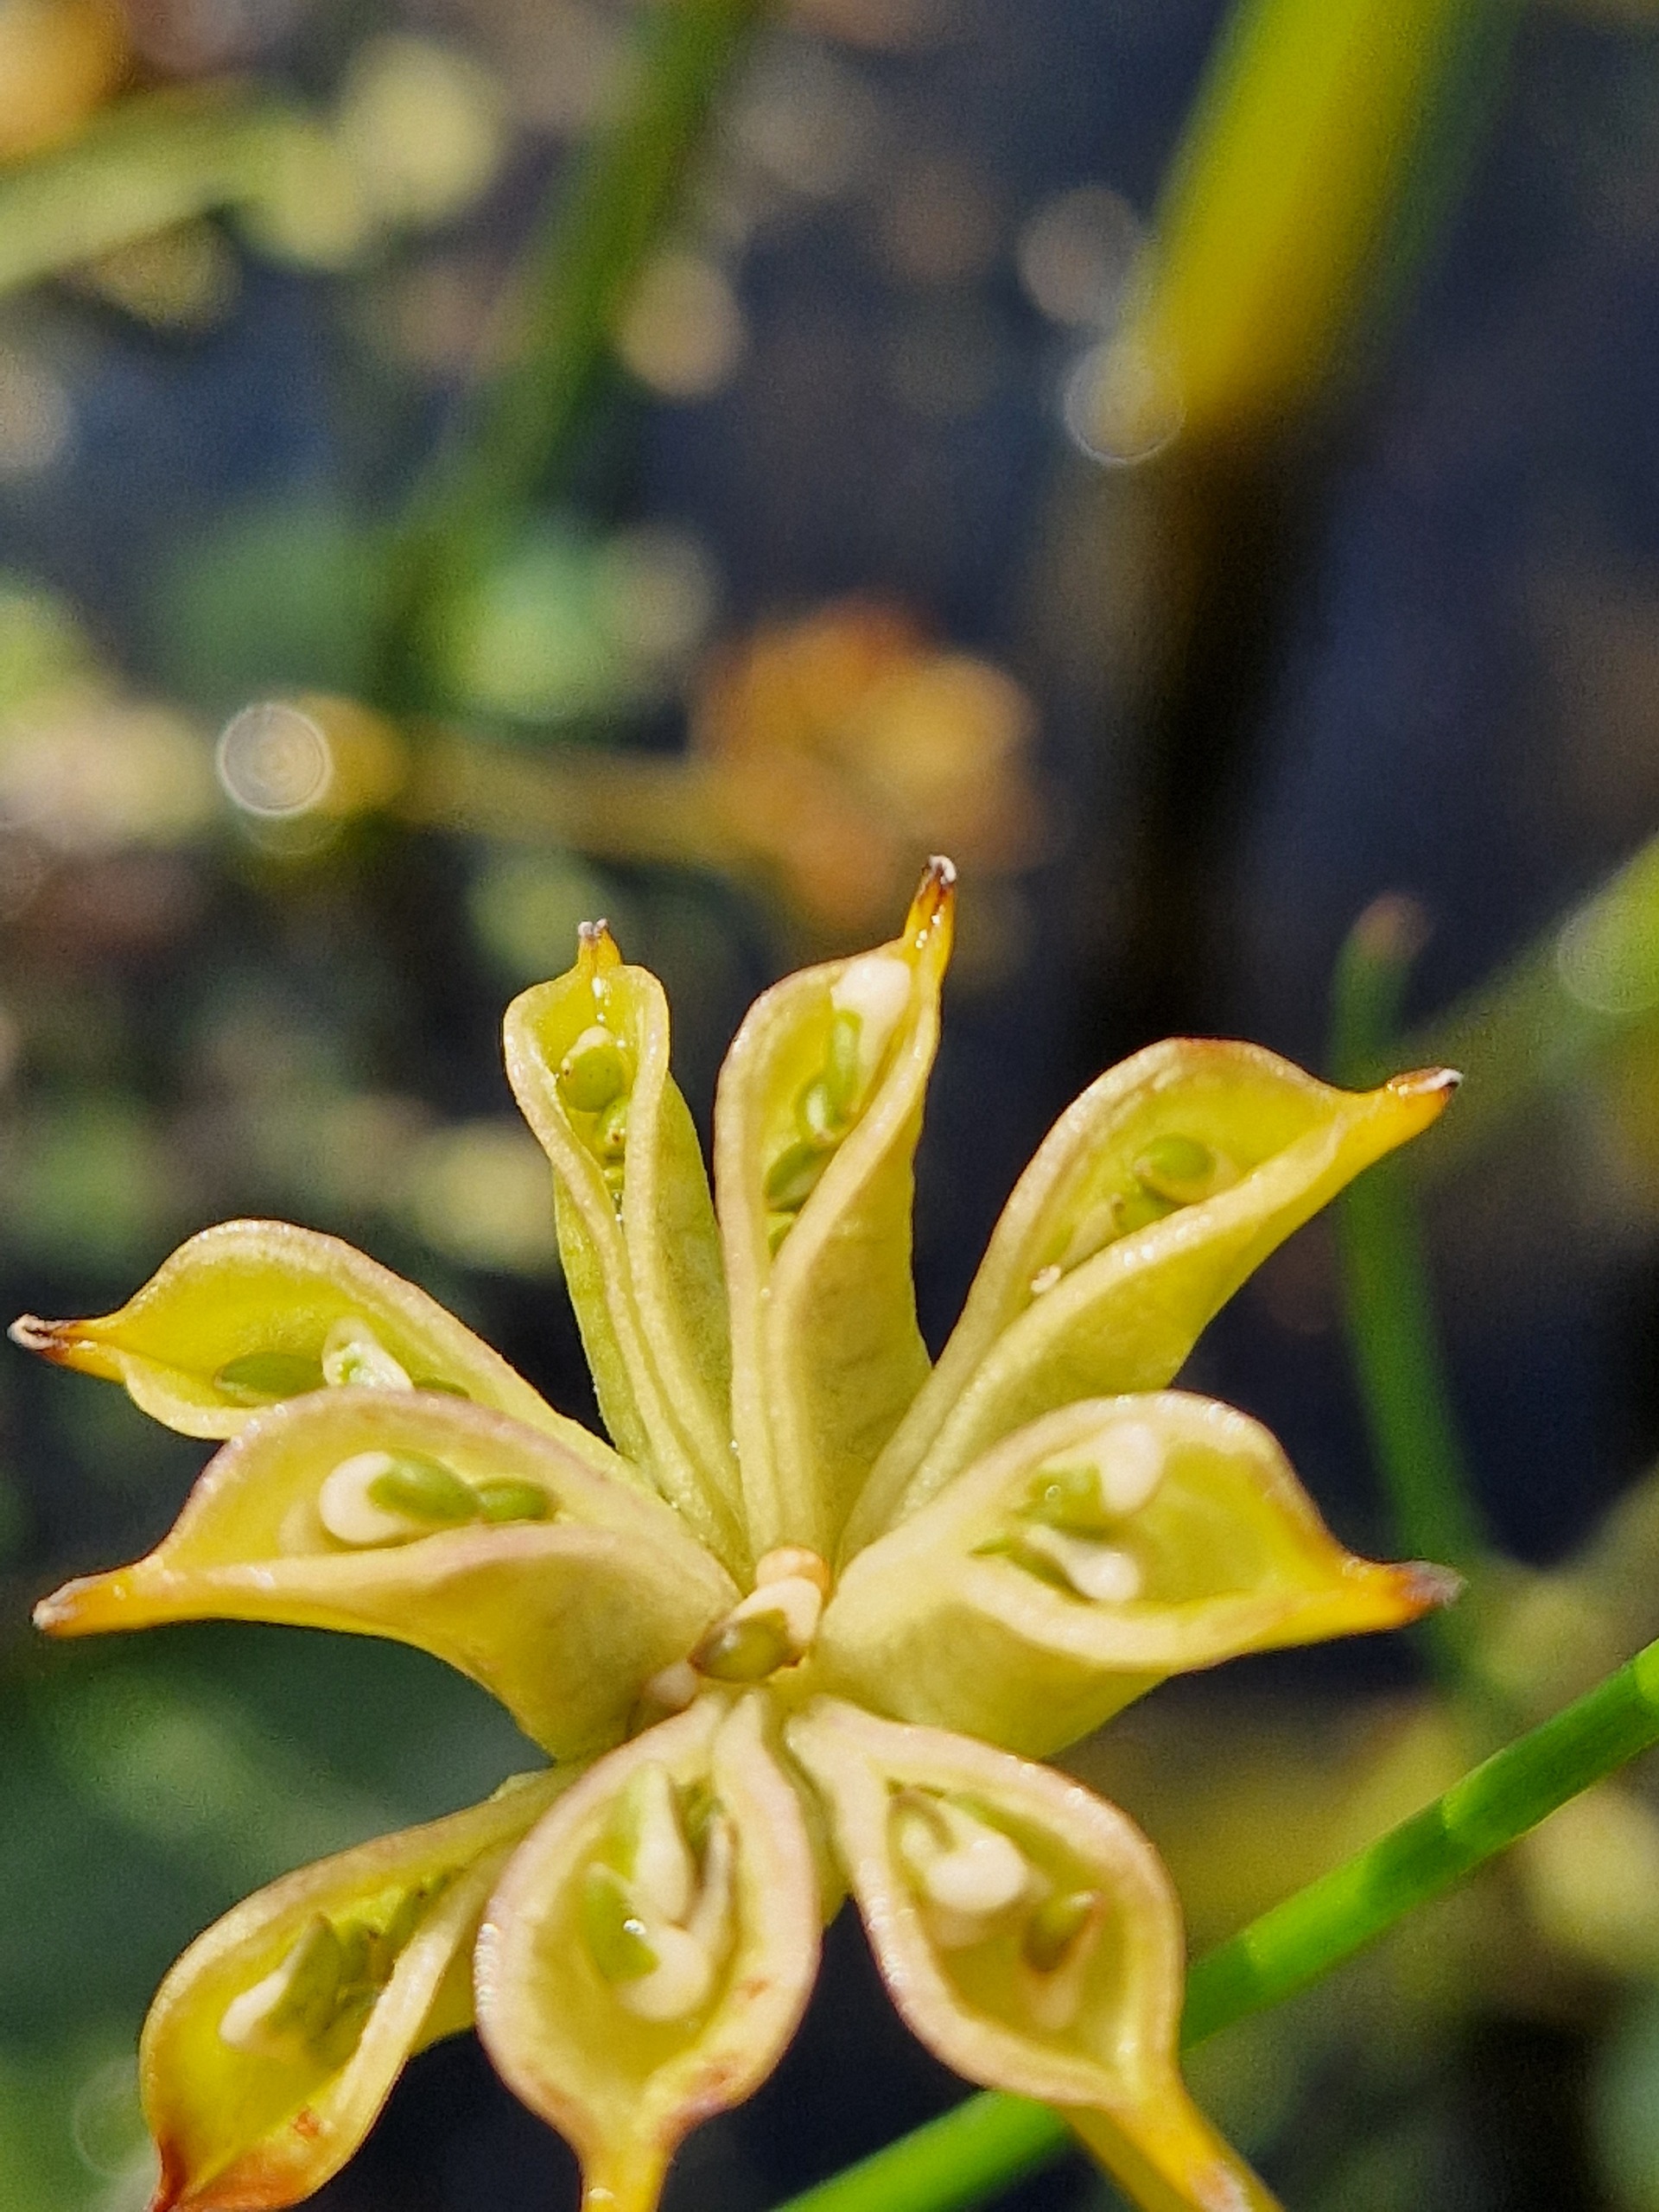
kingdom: Plantae
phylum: Tracheophyta
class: Magnoliopsida
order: Ranunculales
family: Ranunculaceae
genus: Caltha
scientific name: Caltha palustris
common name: Eng-kabbeleje
